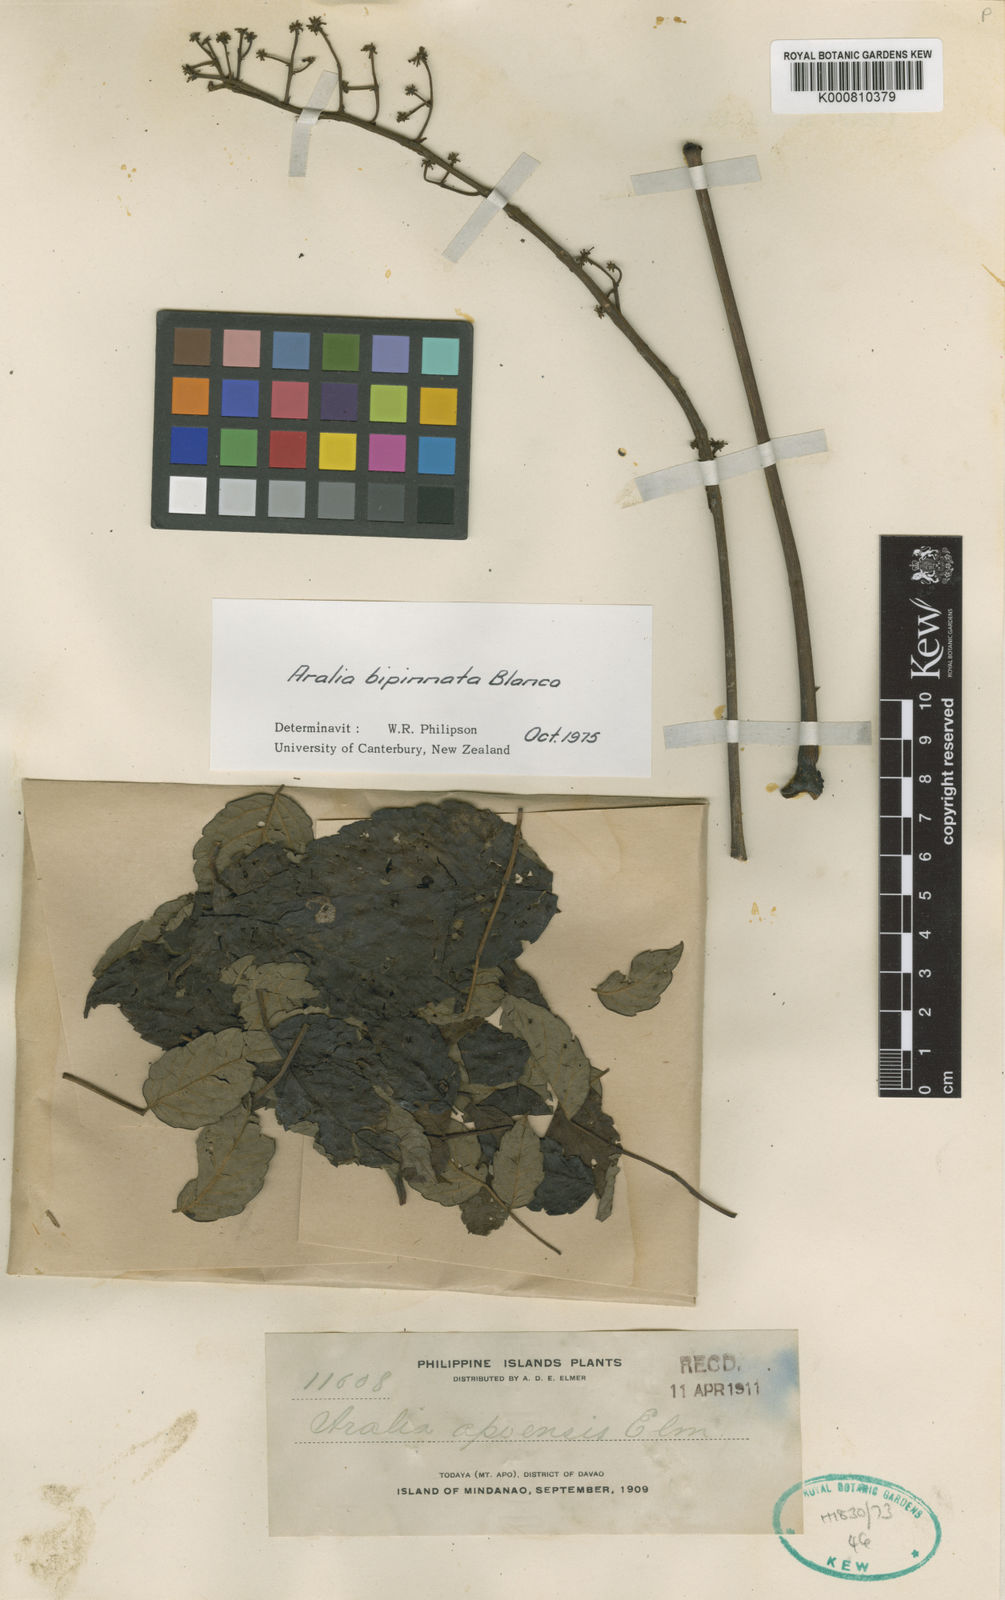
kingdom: Plantae
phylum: Tracheophyta
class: Magnoliopsida
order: Apiales
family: Araliaceae
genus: Aralia
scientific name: Aralia bipinnata
